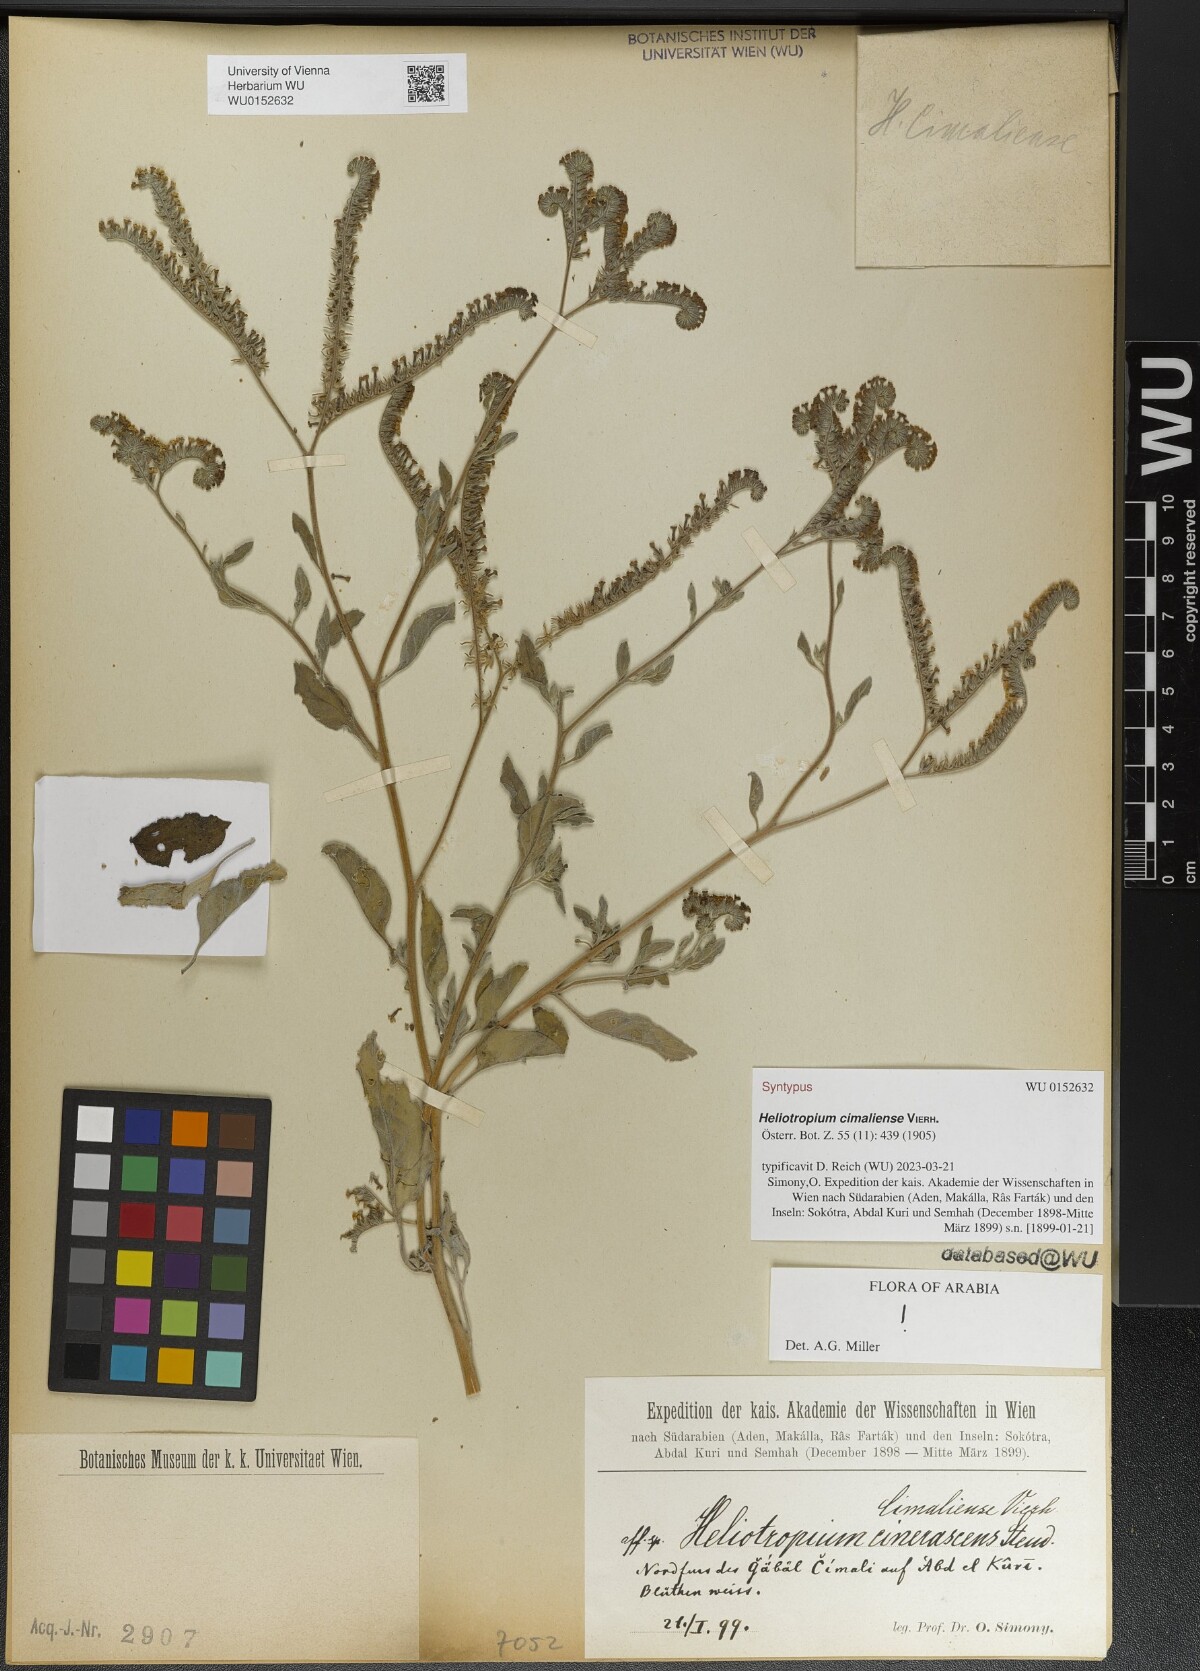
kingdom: Plantae
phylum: Tracheophyta
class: Magnoliopsida
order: Boraginales
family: Heliotropiaceae
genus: Heliotropium
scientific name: Heliotropium aegyptiacum
